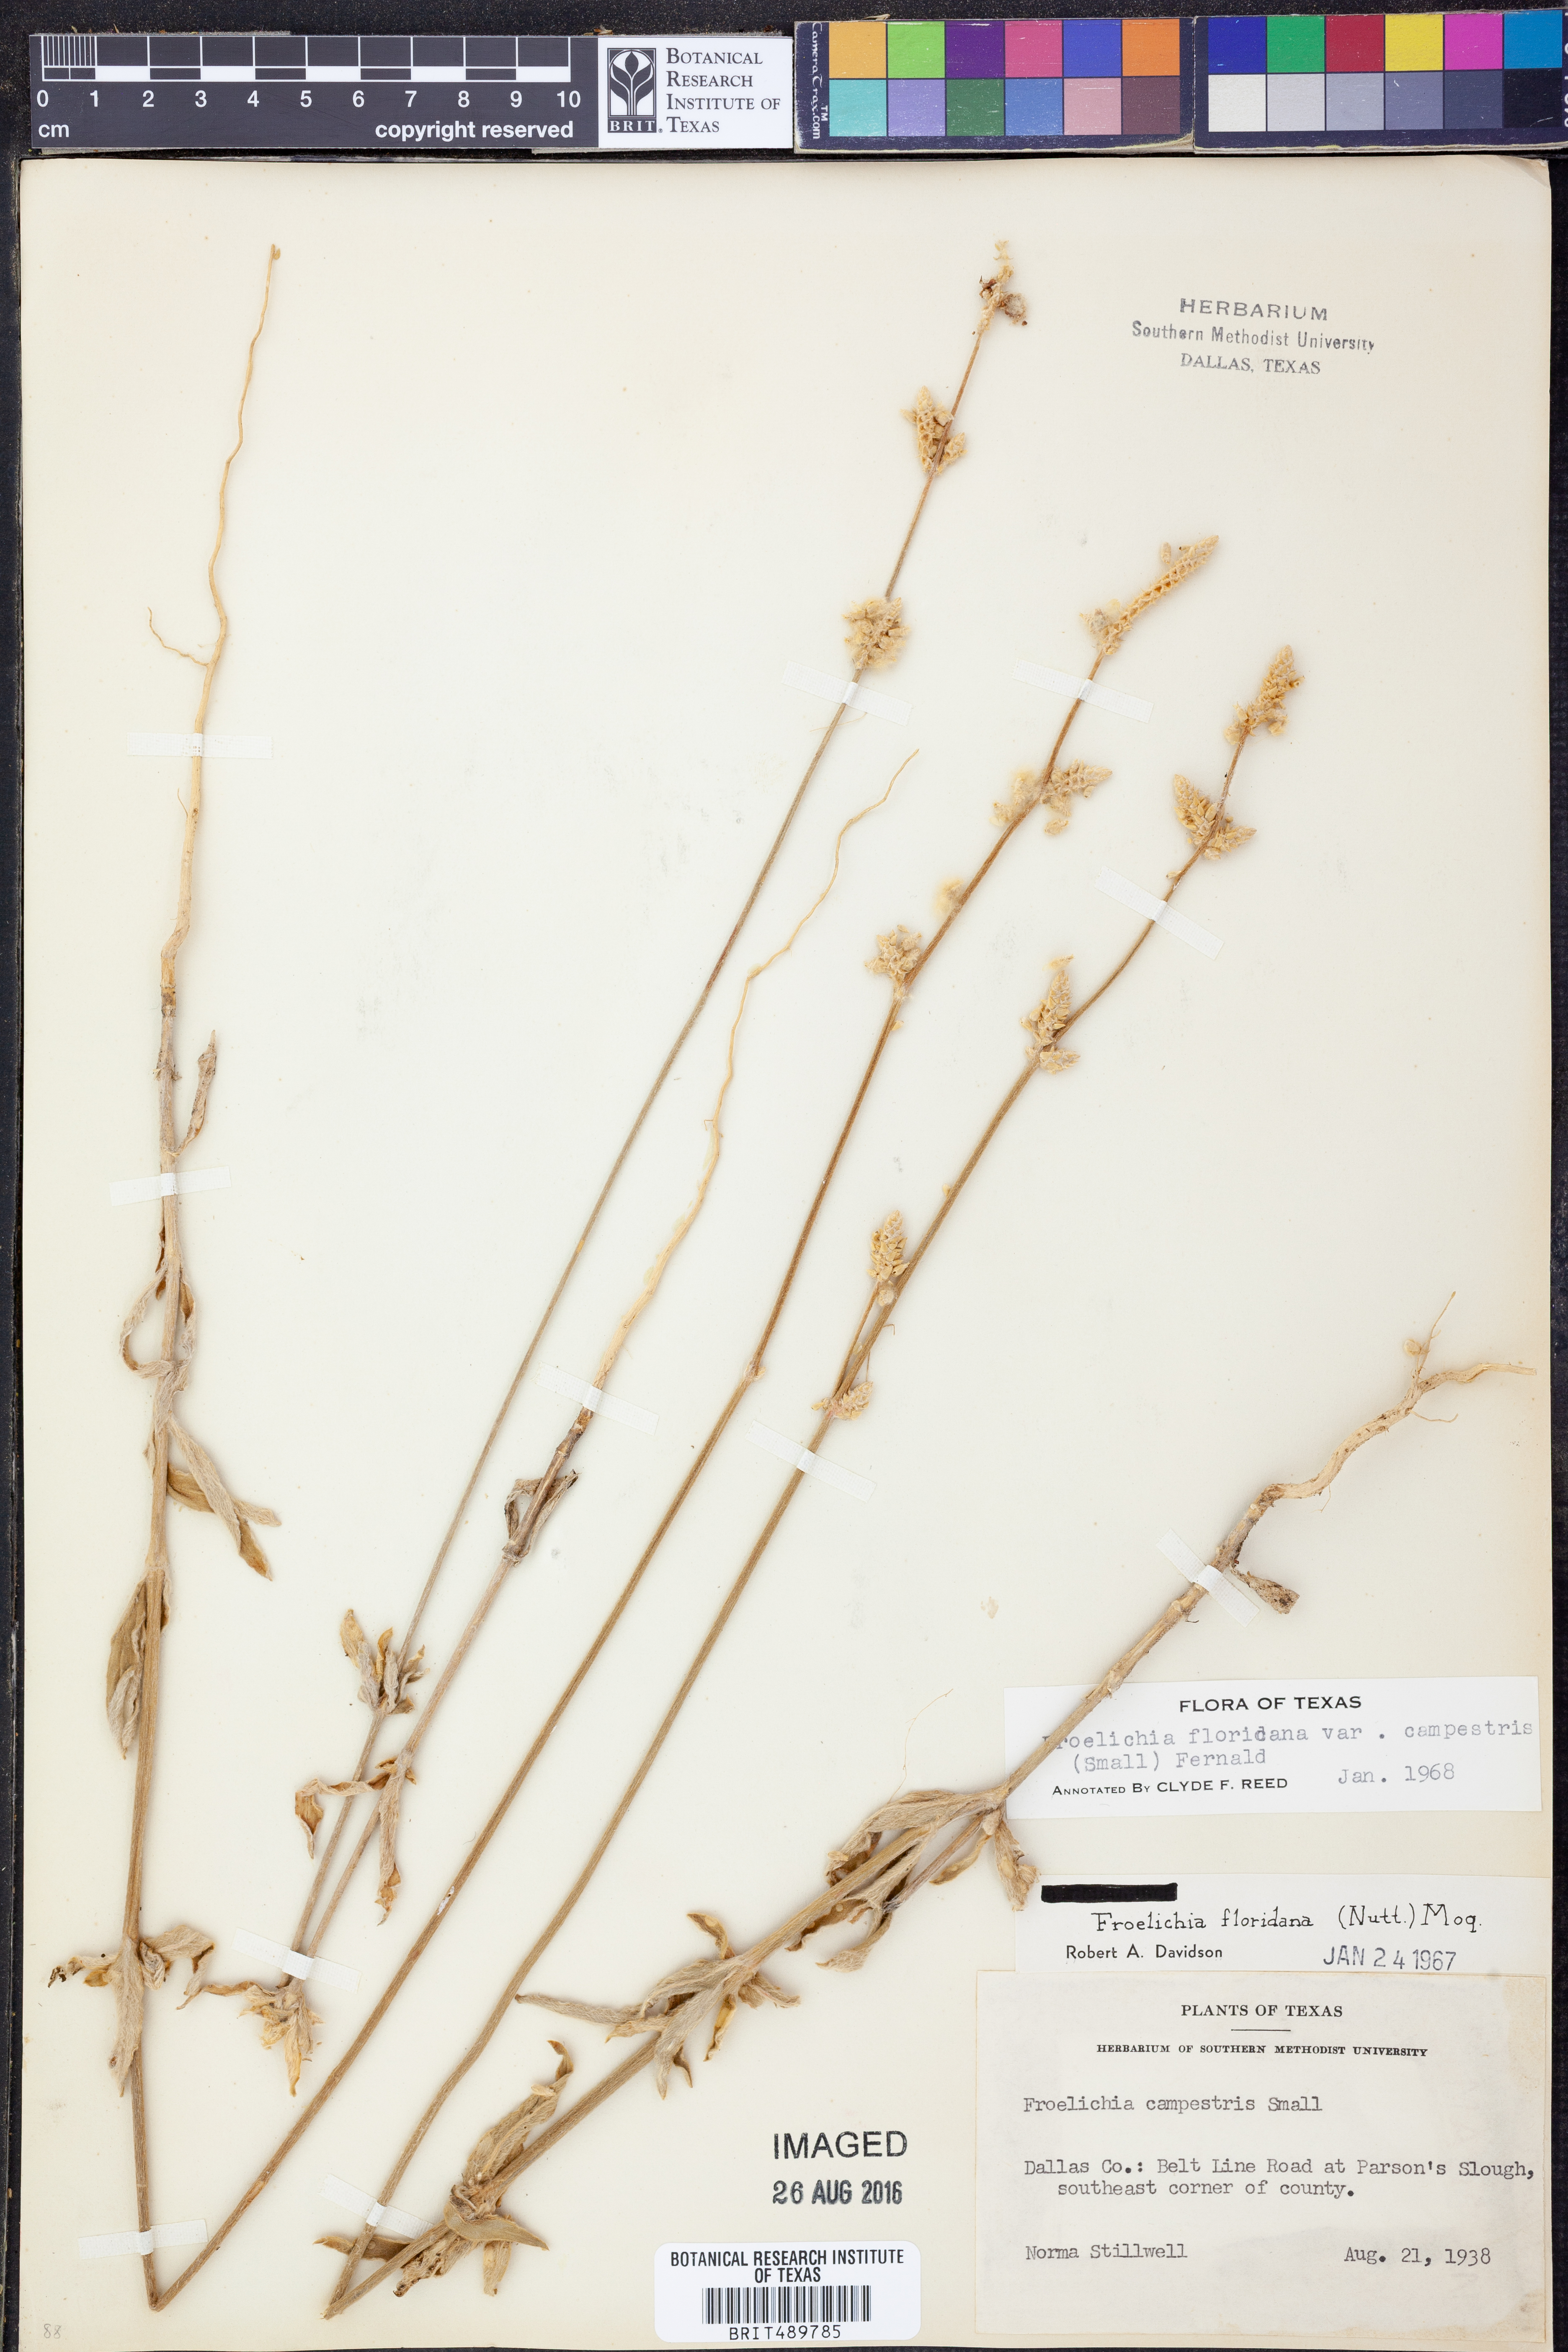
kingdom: Plantae
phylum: Tracheophyta
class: Magnoliopsida
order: Caryophyllales
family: Amaranthaceae
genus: Froelichia
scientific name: Froelichia floridana
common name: Florida snake-cotton
